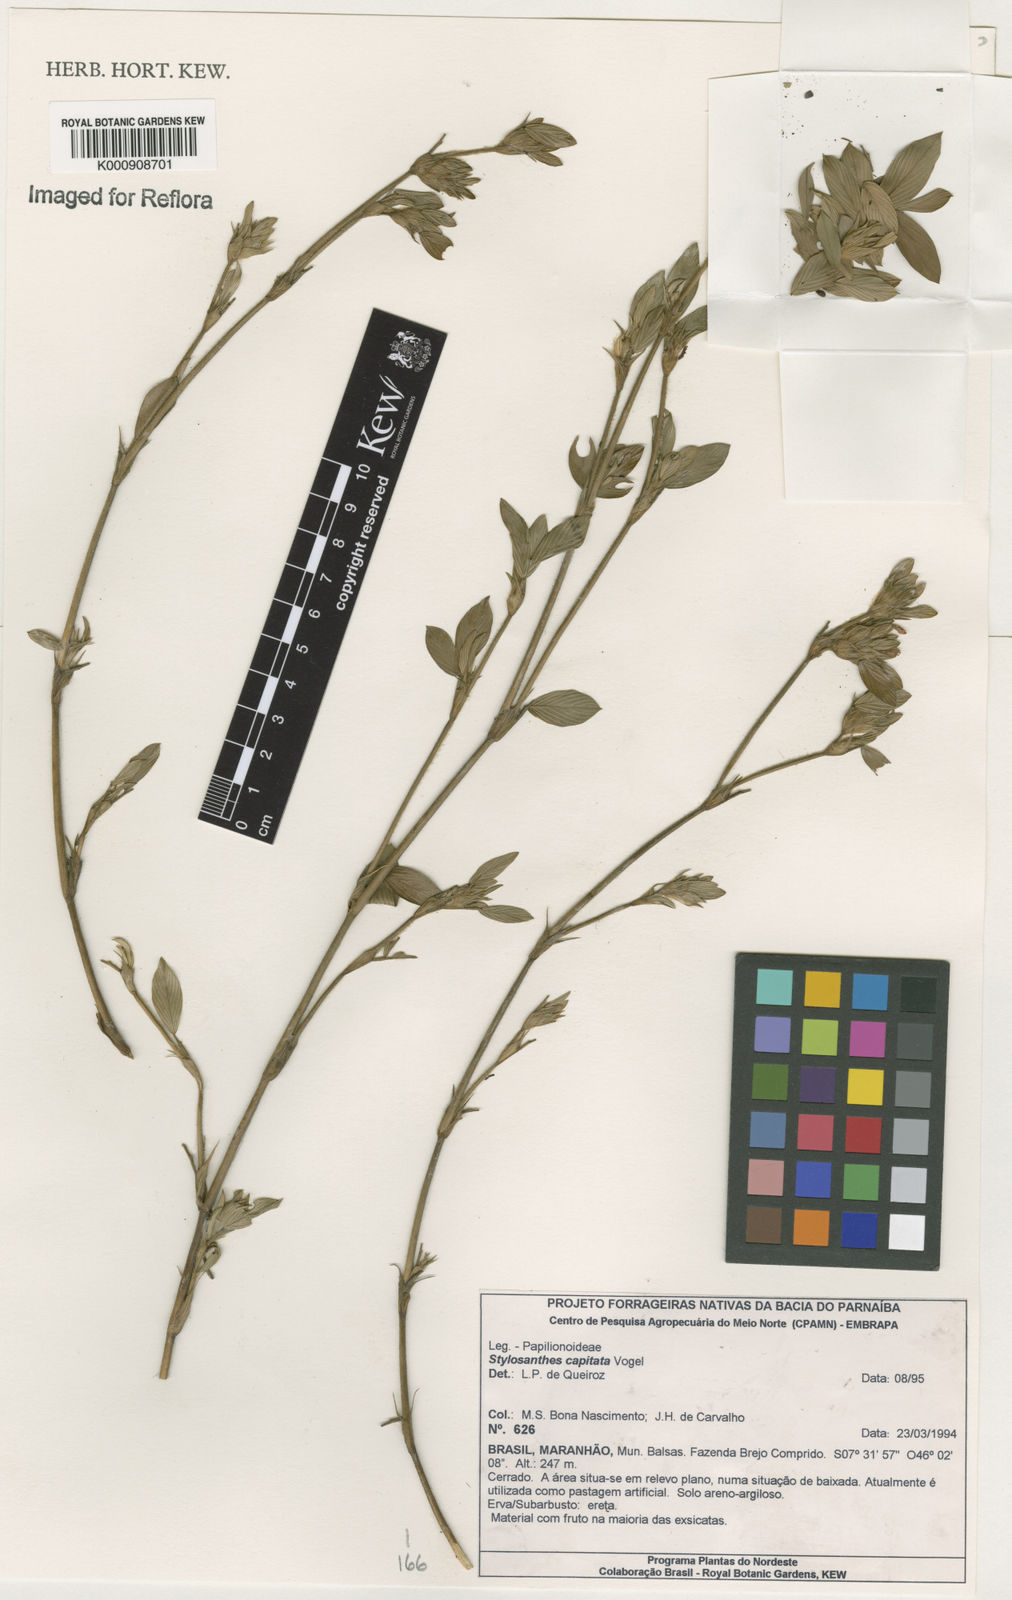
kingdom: Plantae
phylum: Tracheophyta
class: Magnoliopsida
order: Fabales
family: Fabaceae
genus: Stylosanthes
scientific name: Stylosanthes capitata
